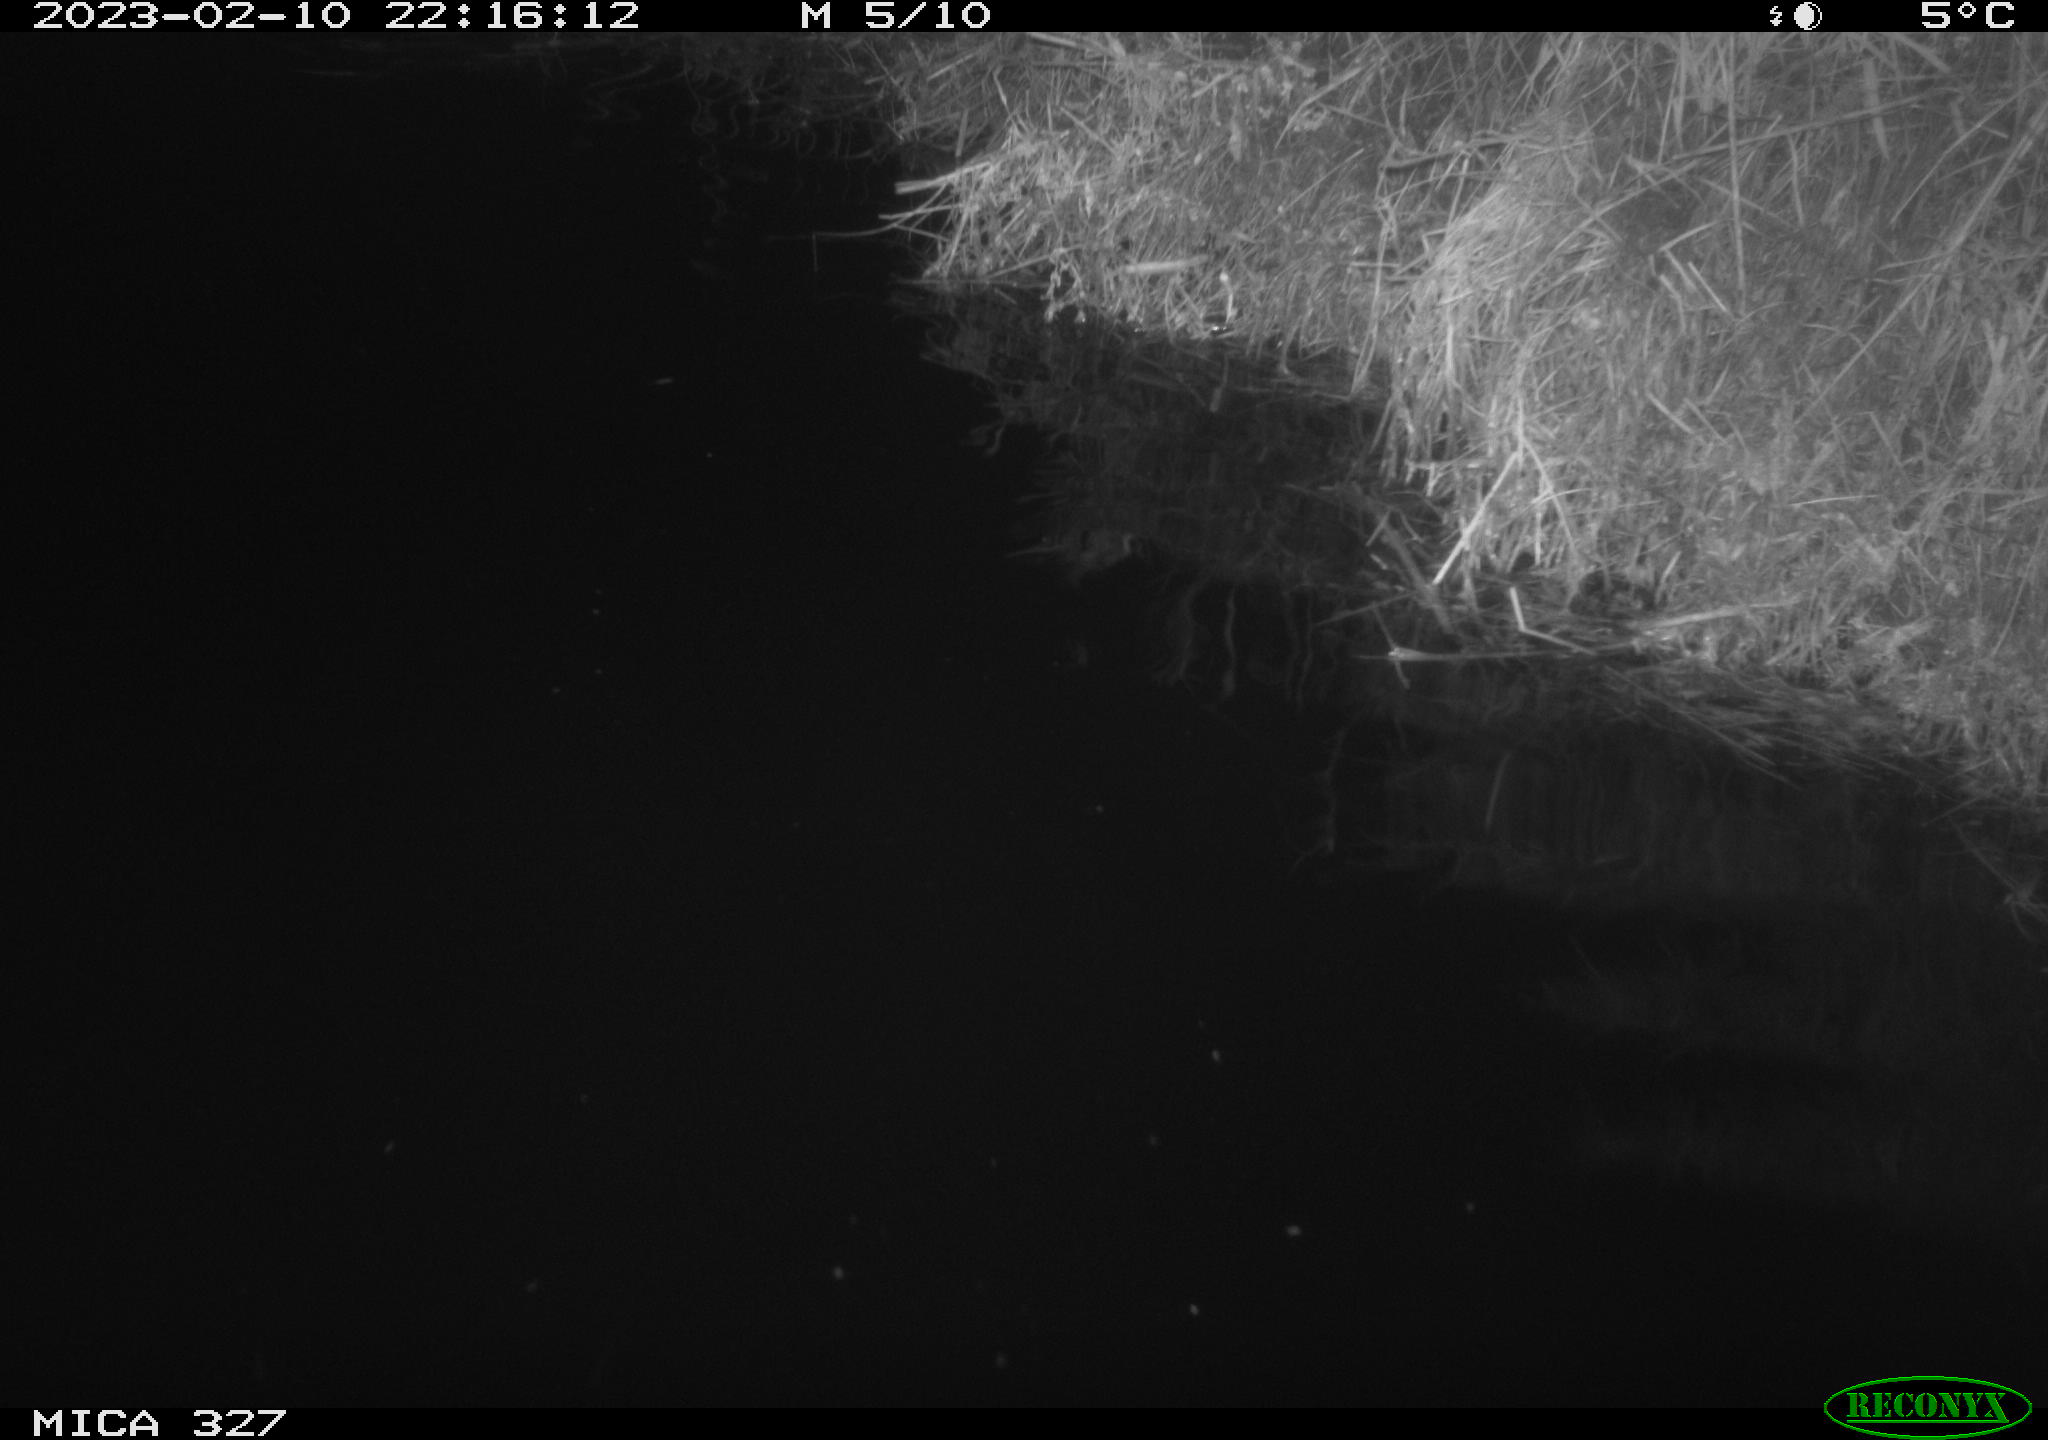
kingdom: Animalia
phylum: Chordata
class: Mammalia
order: Rodentia
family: Cricetidae
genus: Ondatra
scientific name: Ondatra zibethicus
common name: Muskrat
